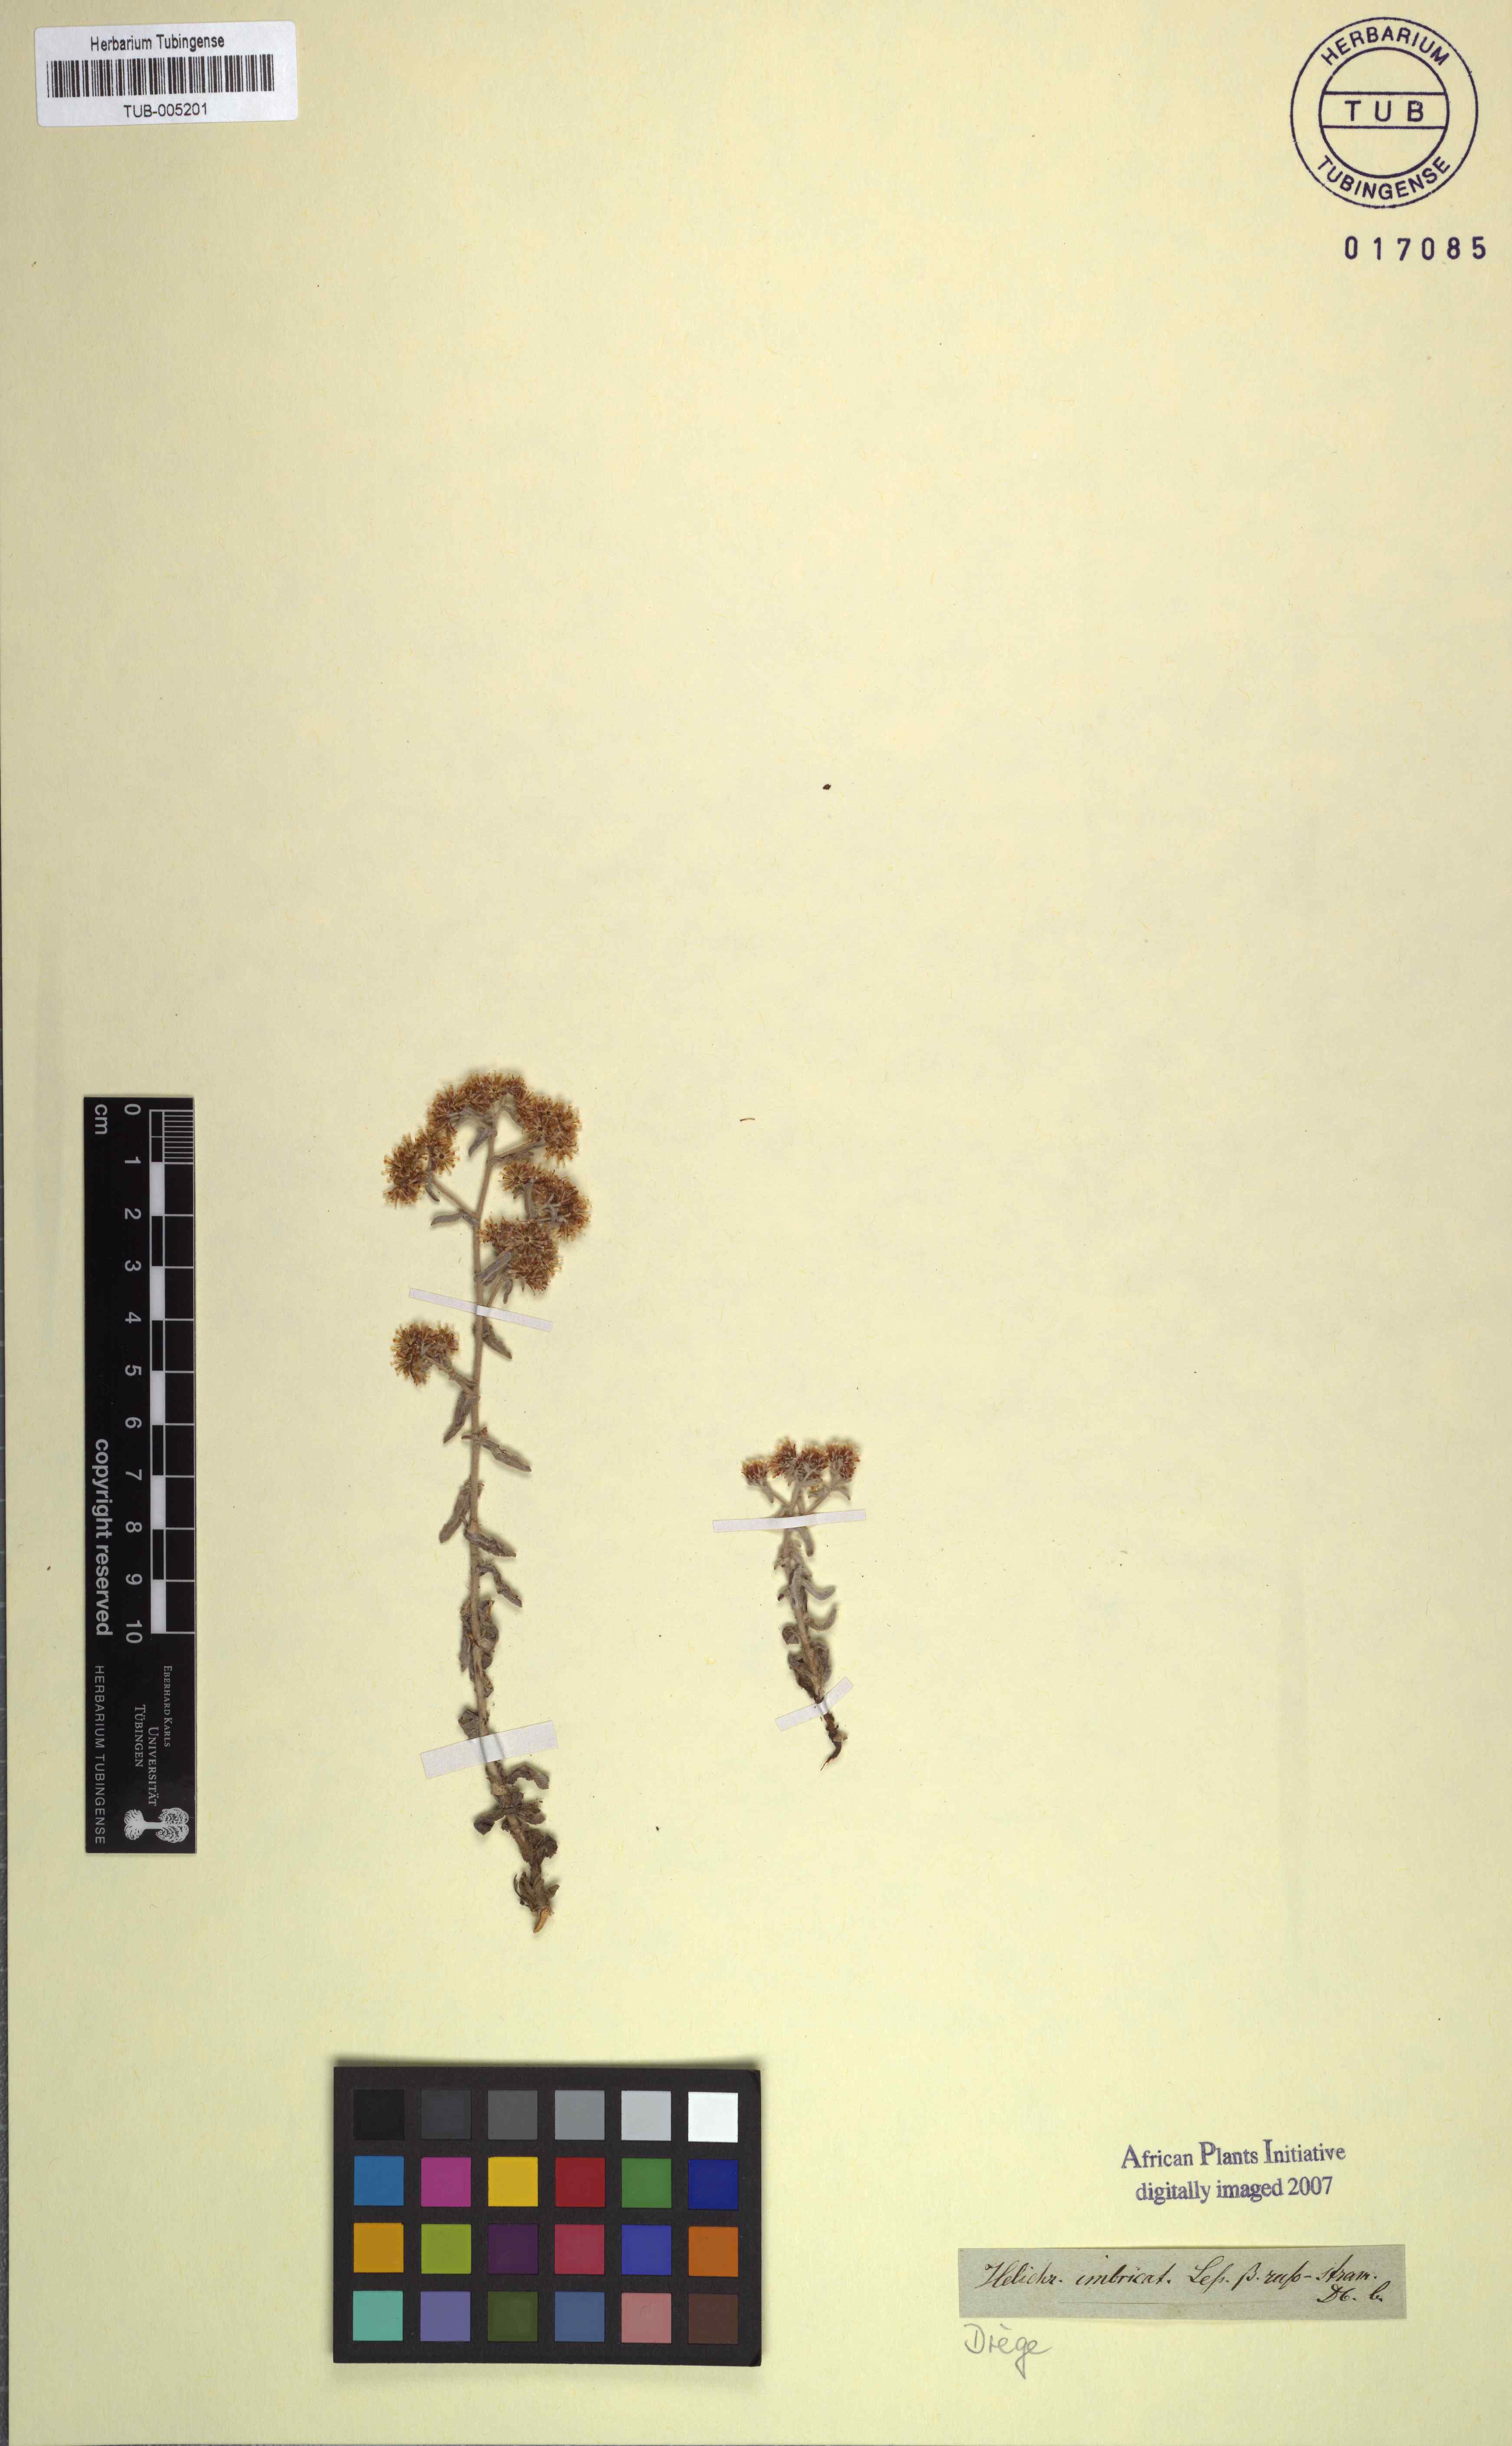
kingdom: Plantae
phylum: Tracheophyta
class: Magnoliopsida
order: Asterales
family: Asteraceae
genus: Helichrysum
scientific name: Helichrysum cochleariforme
